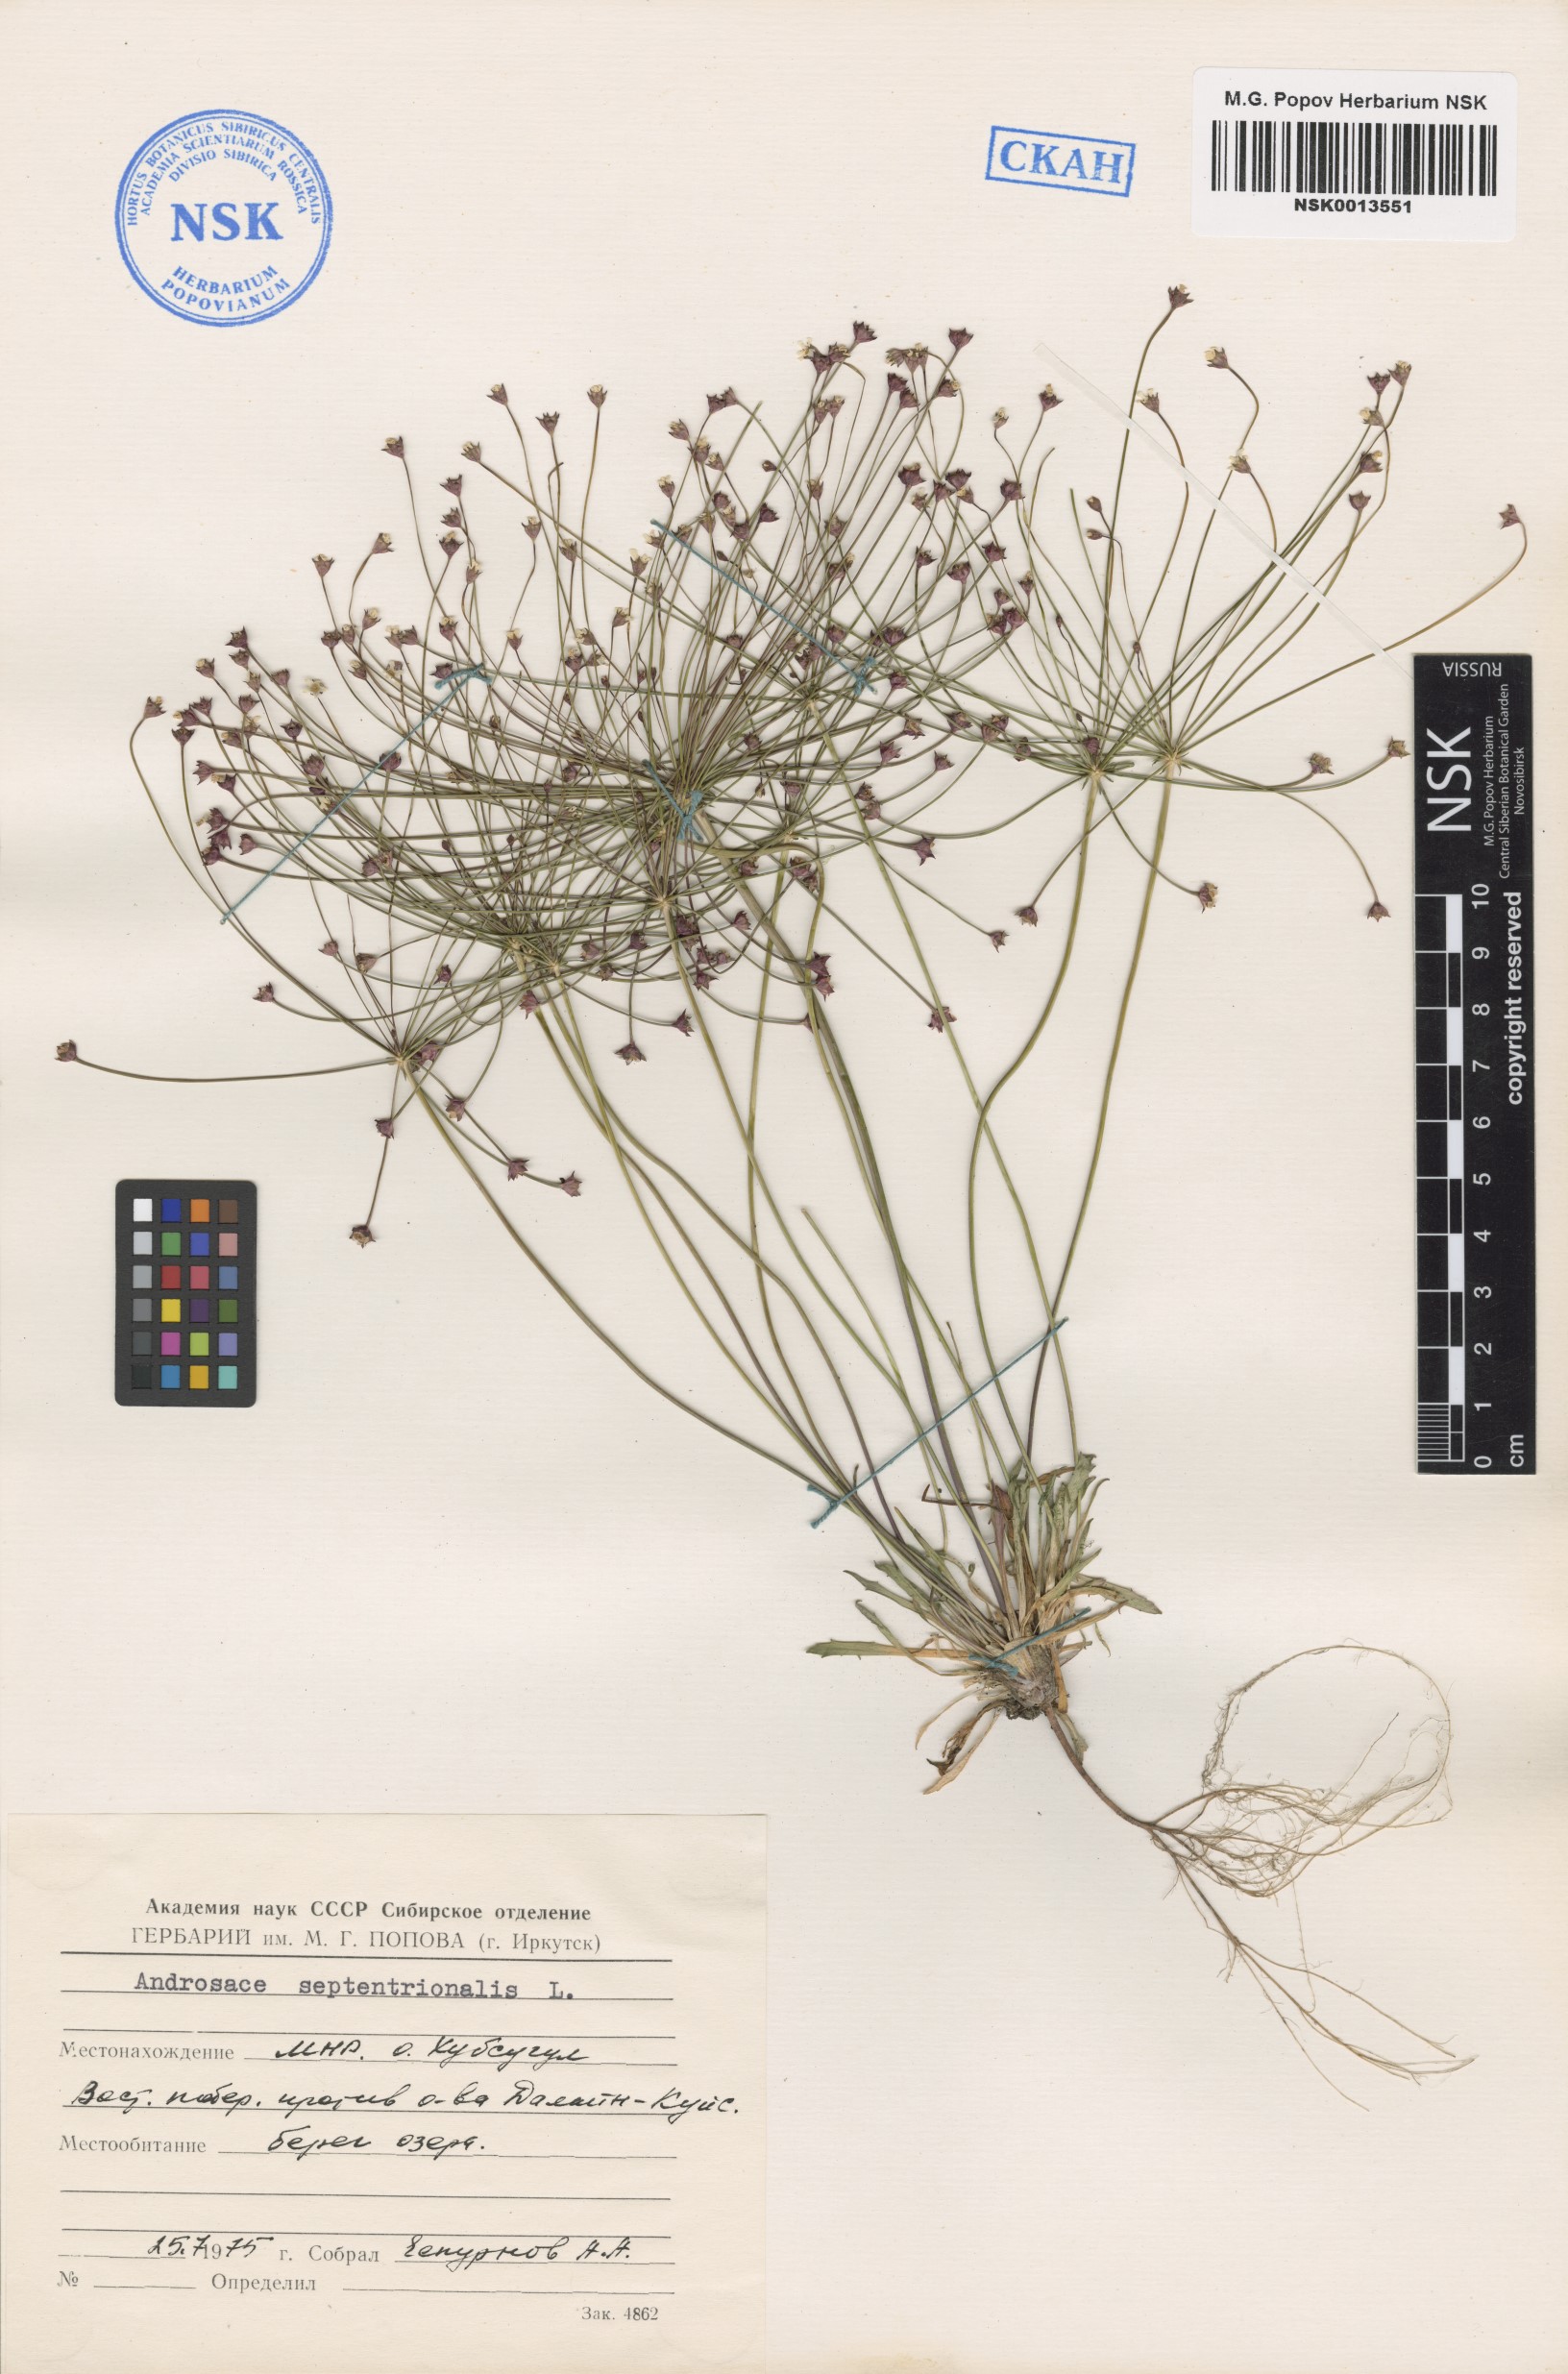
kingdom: Plantae
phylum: Tracheophyta
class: Magnoliopsida
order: Ericales
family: Primulaceae
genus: Androsace
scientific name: Androsace septentrionalis
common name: Hairy northern fairy-candelabra
